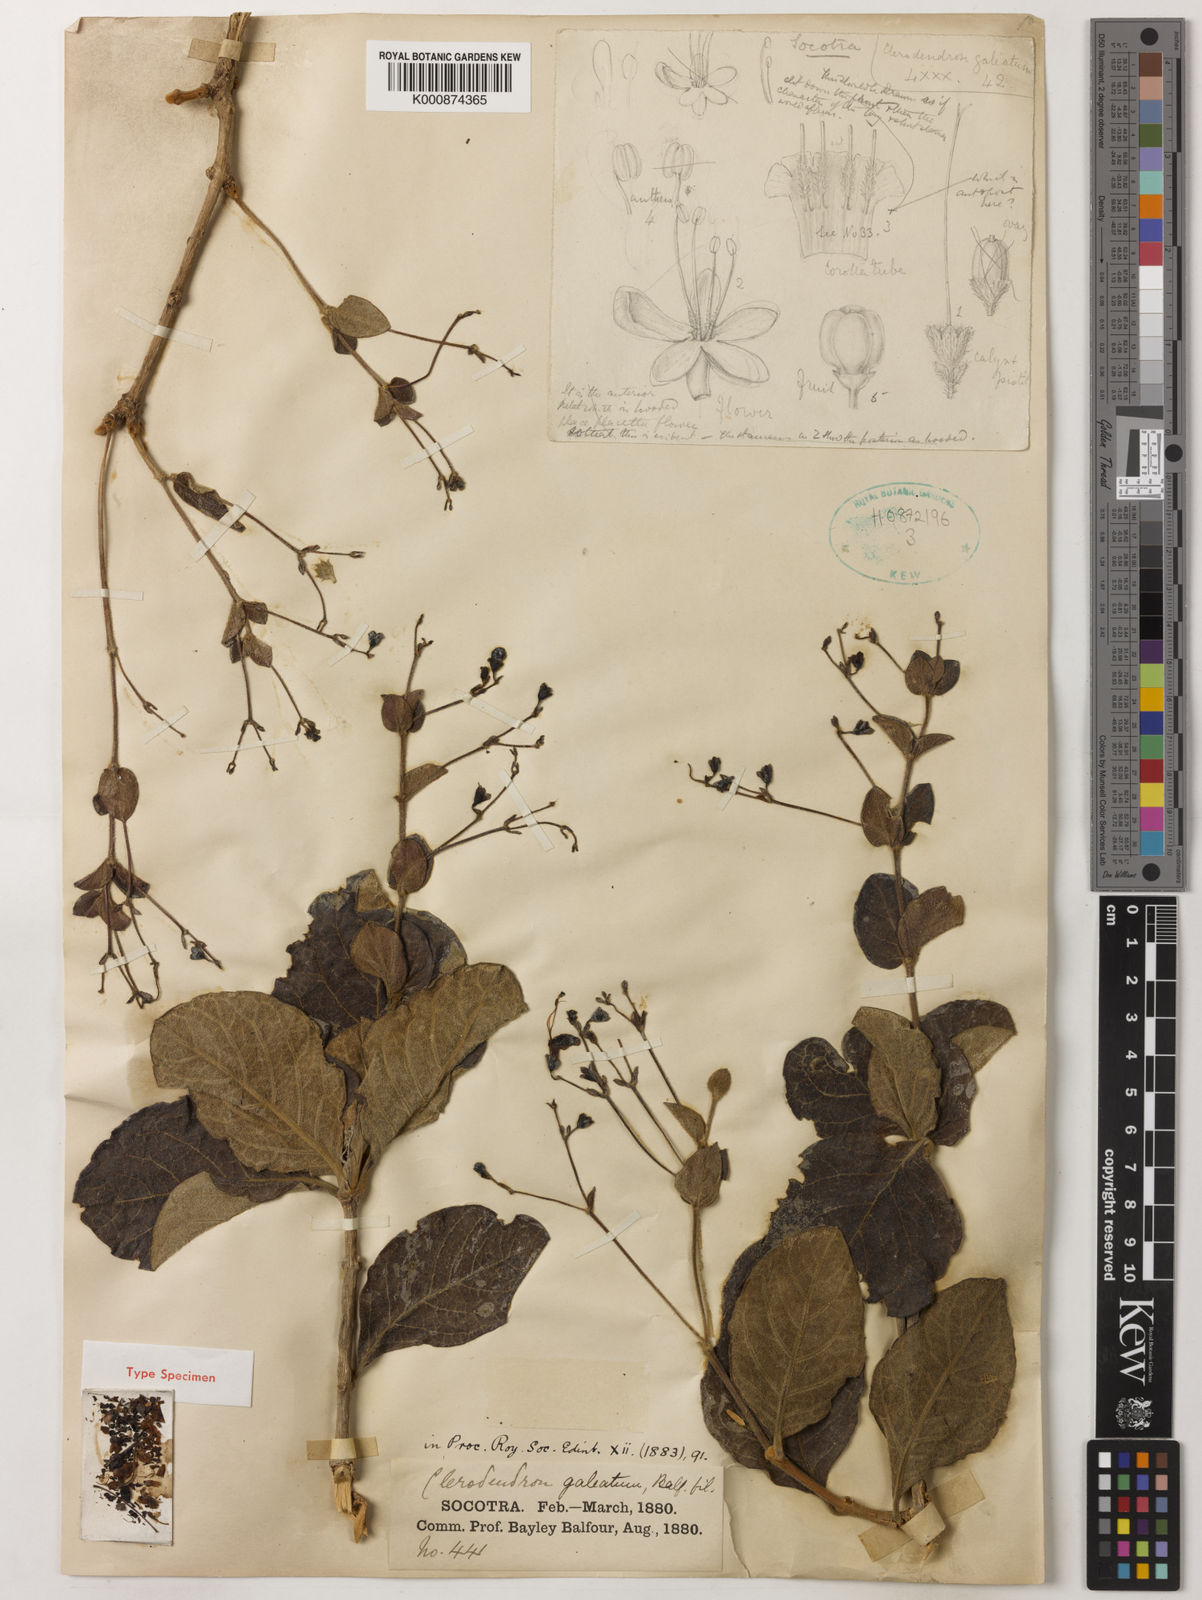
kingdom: Plantae
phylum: Tracheophyta
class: Magnoliopsida
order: Lamiales
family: Lamiaceae
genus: Clerodendrum
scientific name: Clerodendrum galeatum
